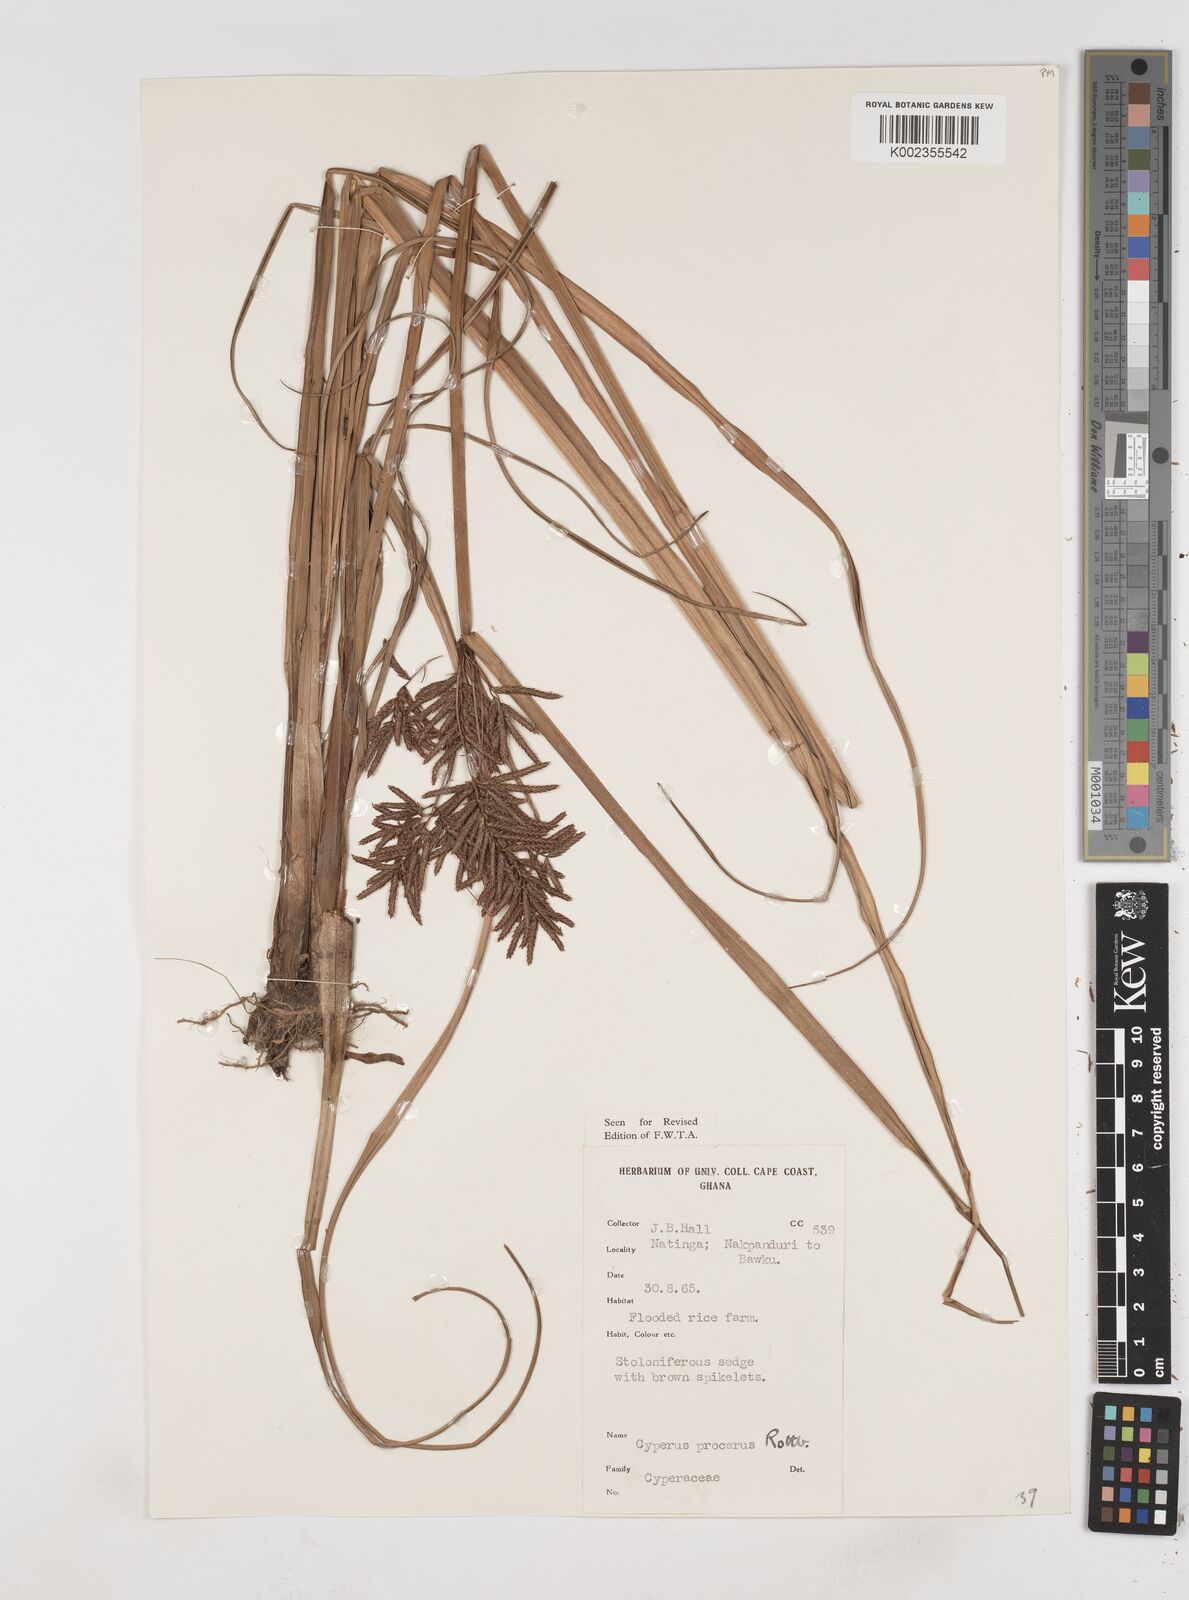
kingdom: Plantae
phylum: Tracheophyta
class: Liliopsida
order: Poales
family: Cyperaceae
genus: Cyperus
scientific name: Cyperus procerus
